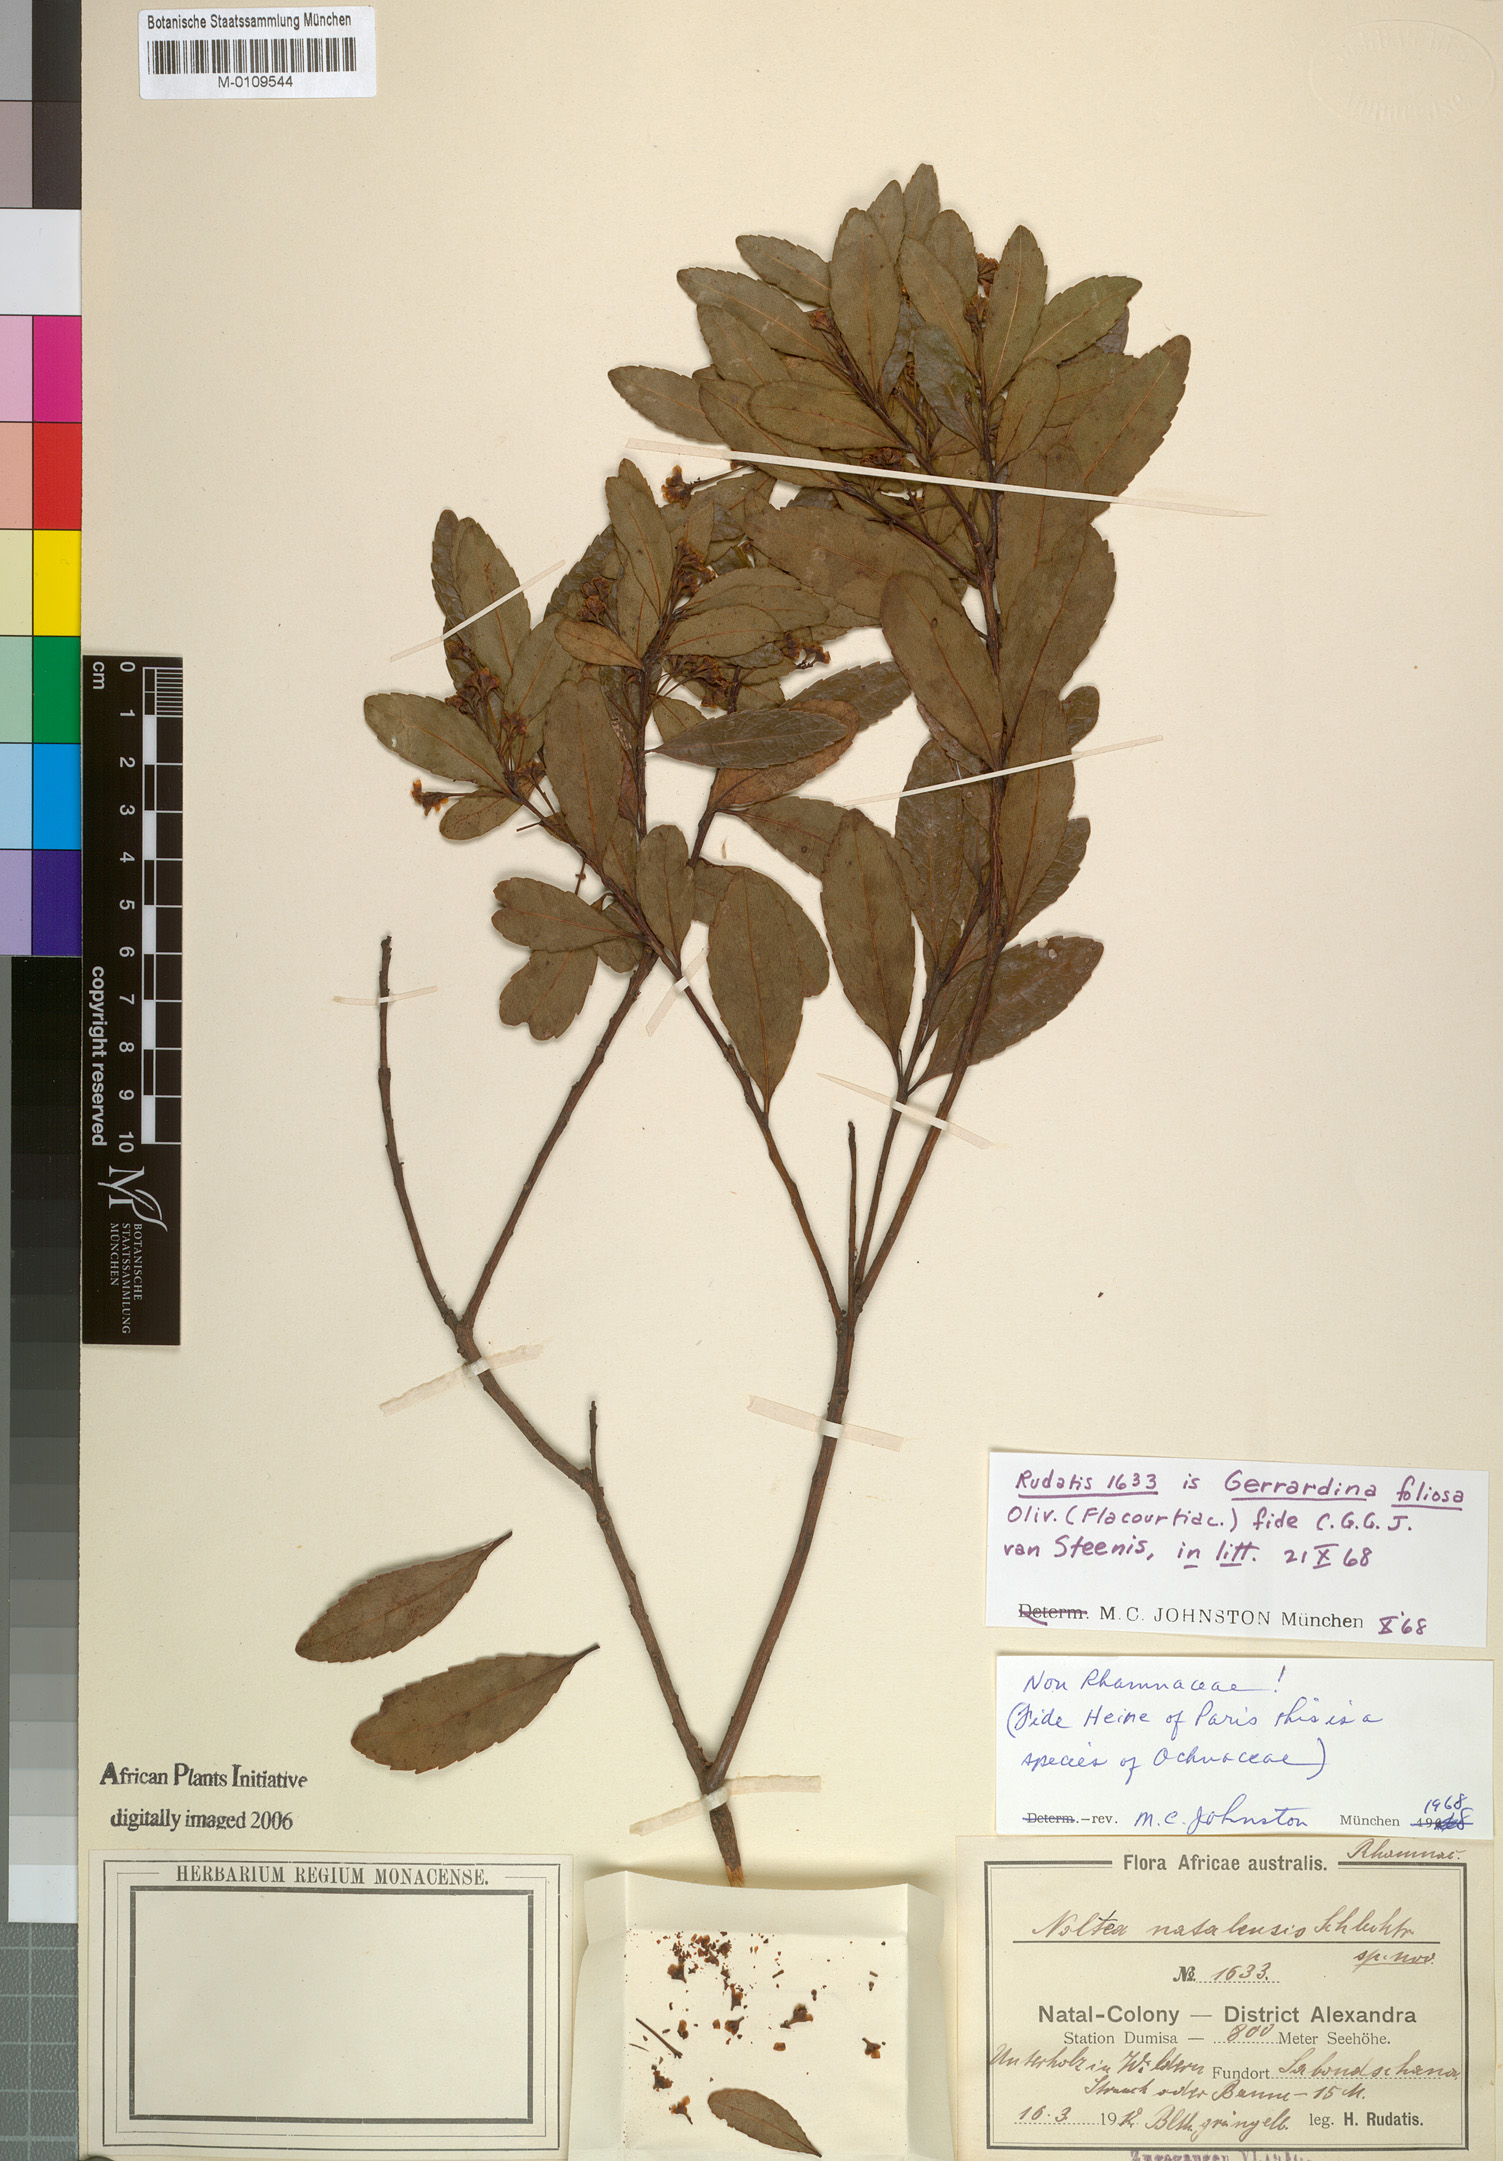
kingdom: Plantae
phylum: Tracheophyta
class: Magnoliopsida
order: Huerteales
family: Gerrardinaceae
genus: Gerrardina
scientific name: Gerrardina foliosa
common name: Krantz-berry
